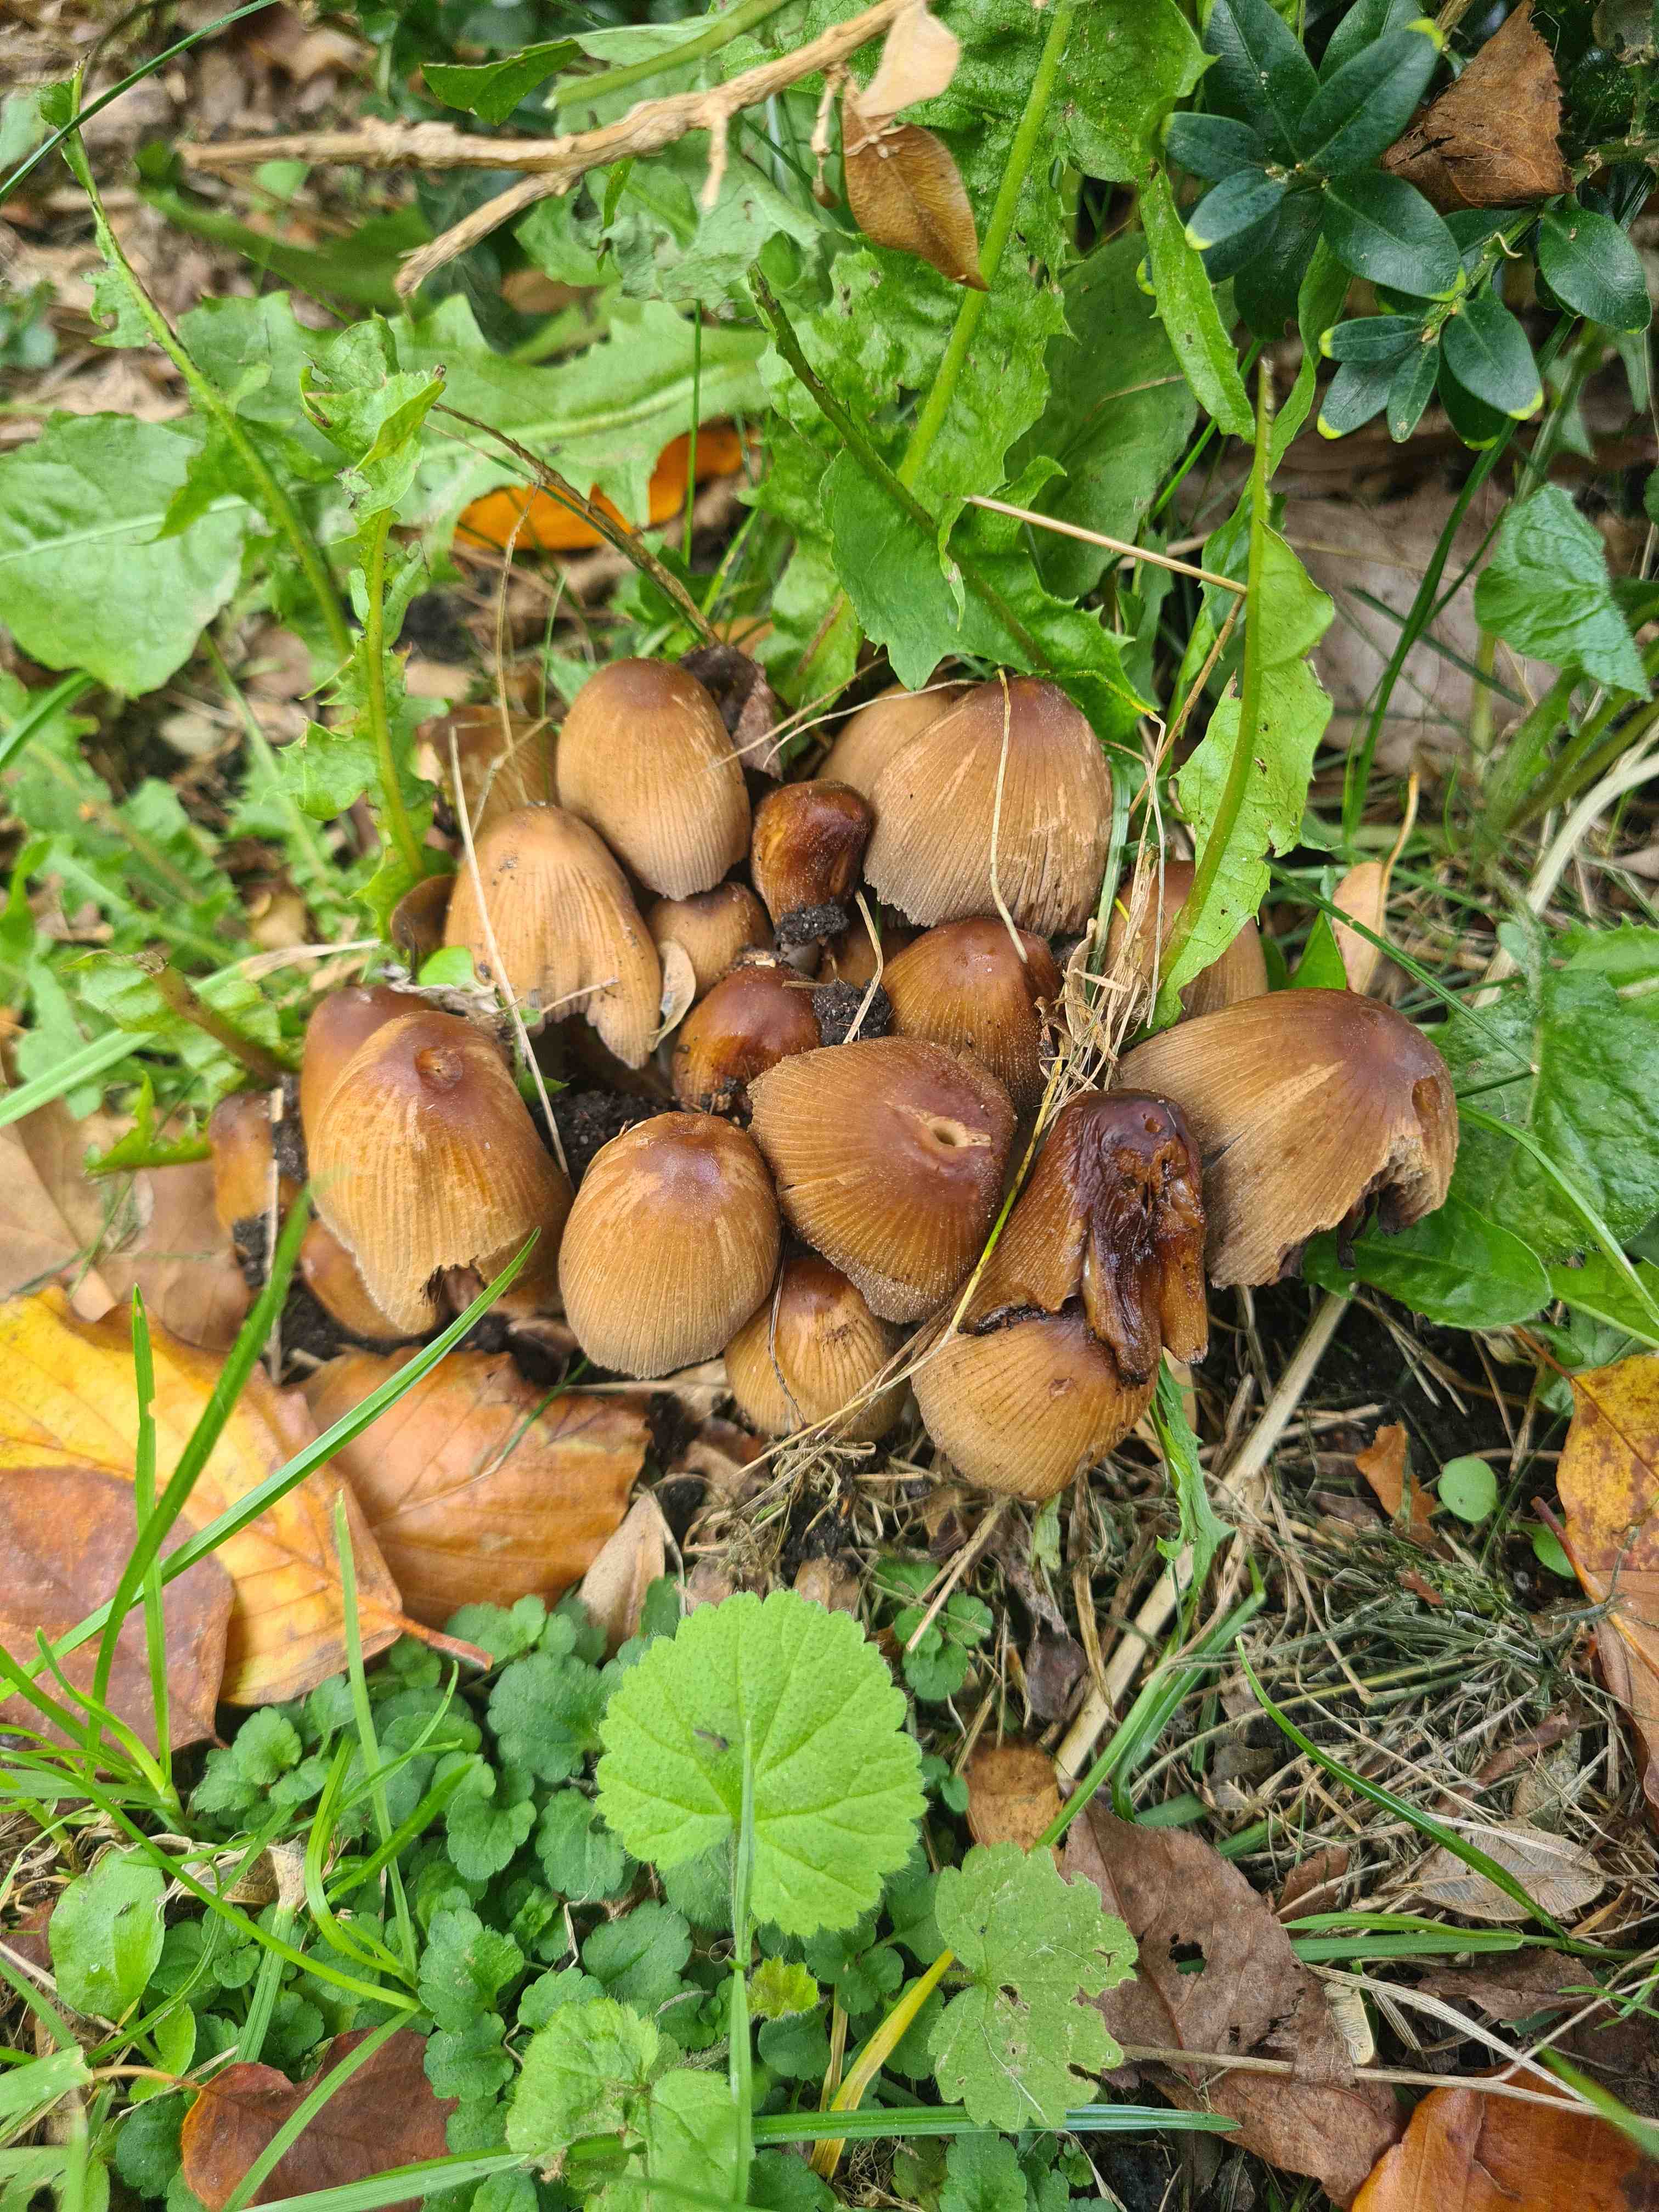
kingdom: Fungi
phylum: Basidiomycota
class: Agaricomycetes
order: Agaricales
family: Psathyrellaceae
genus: Coprinellus
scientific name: Coprinellus micaceus
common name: glimmer-blækhat
